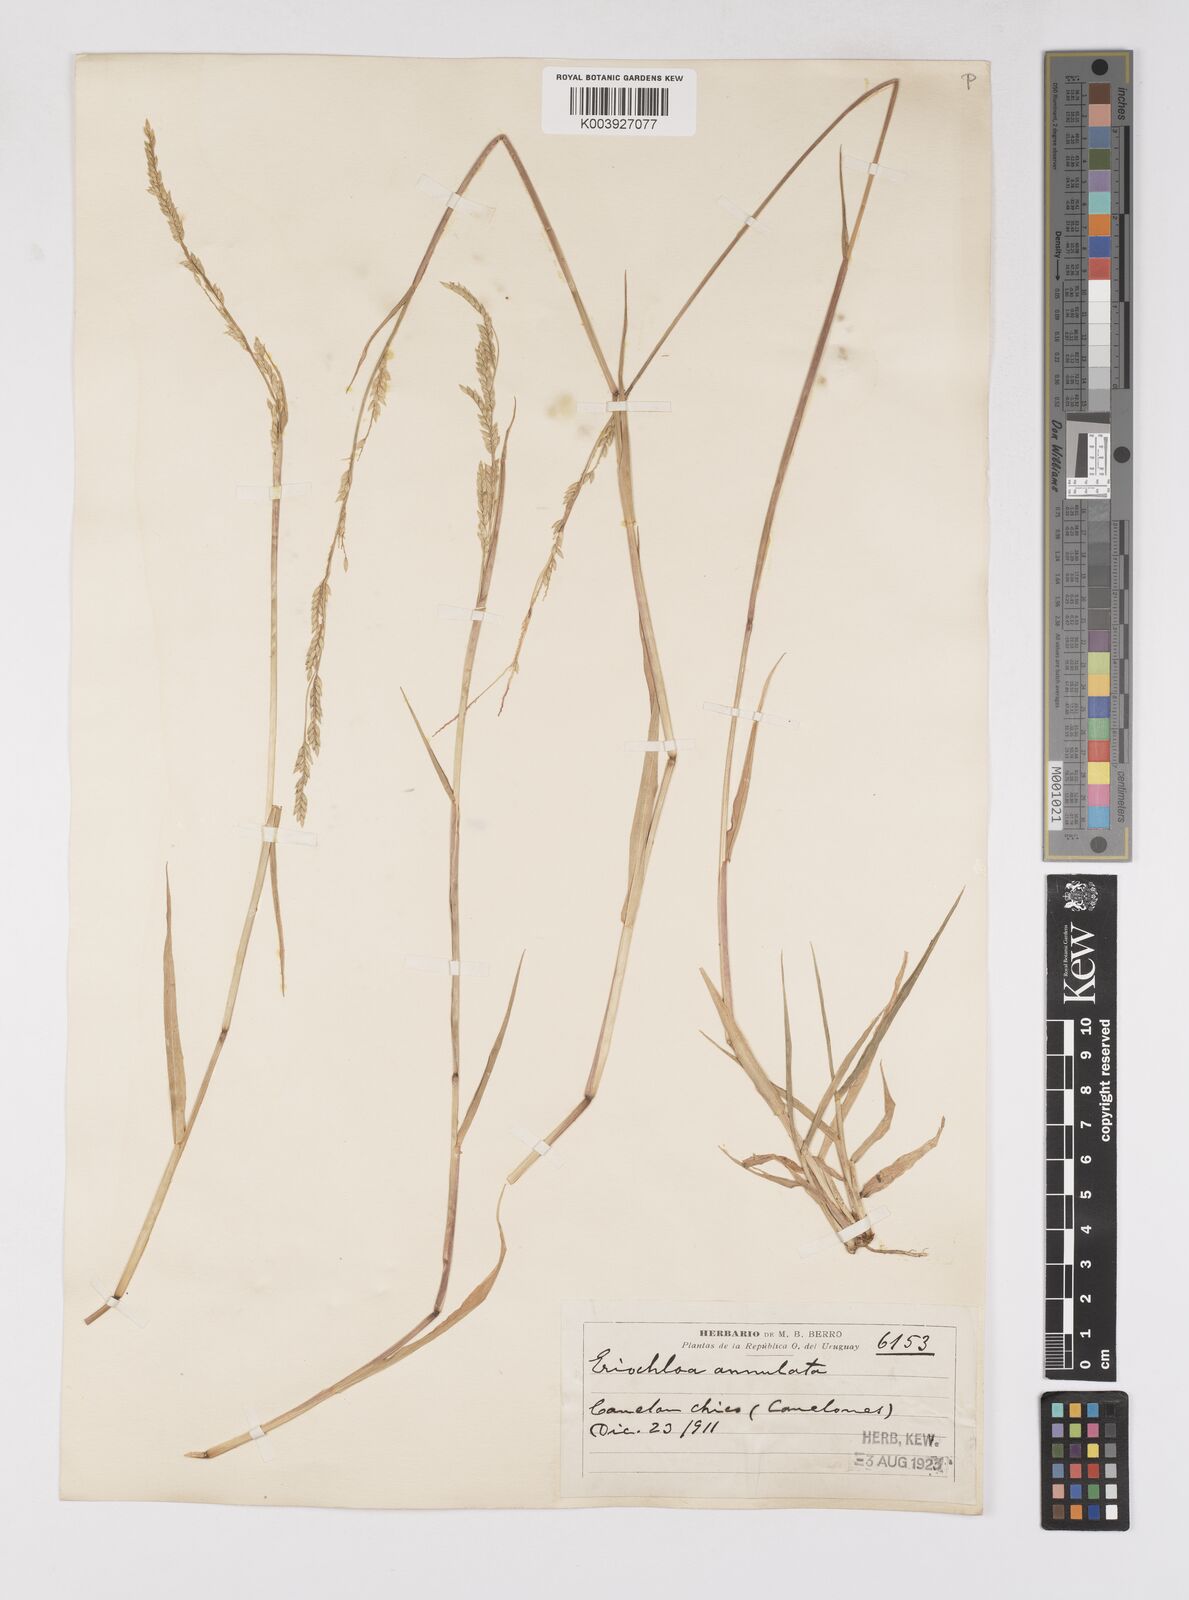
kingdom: Plantae
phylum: Tracheophyta
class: Liliopsida
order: Poales
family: Poaceae
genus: Eriochloa
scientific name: Eriochloa procera
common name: Spring grass
